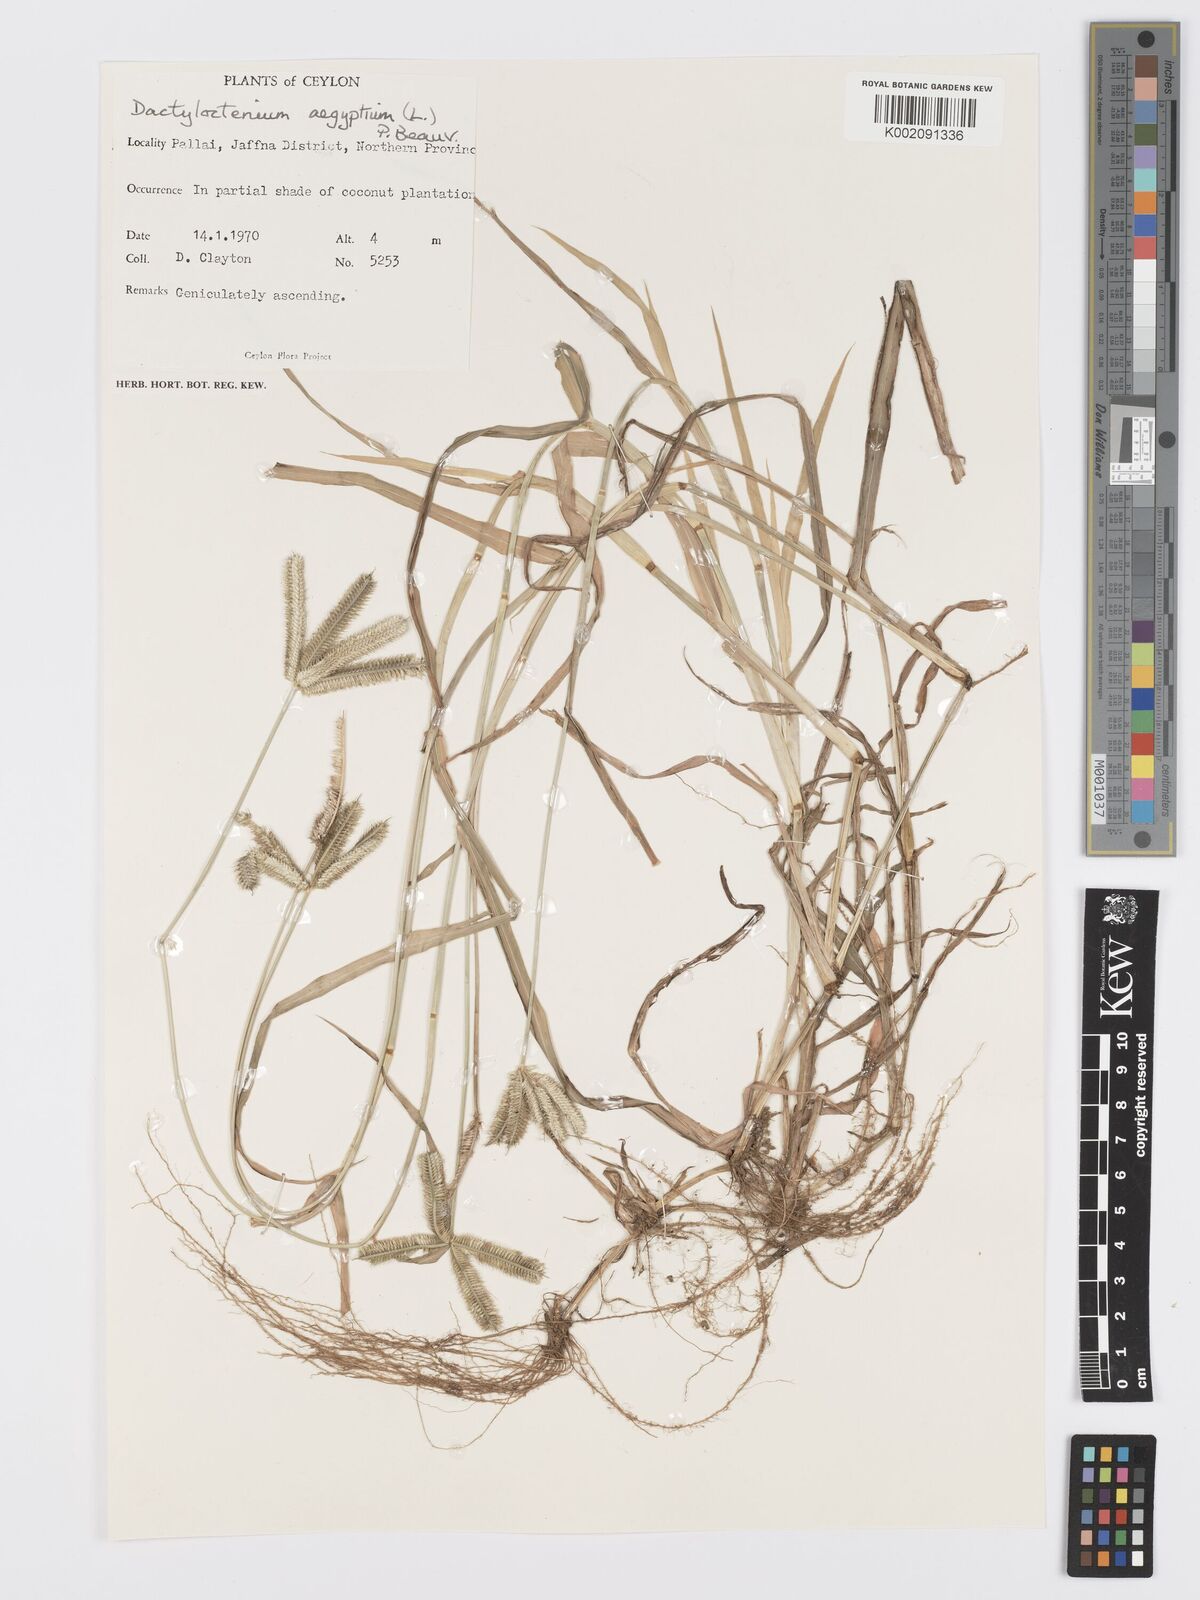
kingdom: Plantae
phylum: Tracheophyta
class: Liliopsida
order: Poales
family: Poaceae
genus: Dactyloctenium
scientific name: Dactyloctenium aegyptium
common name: Egyptian grass
